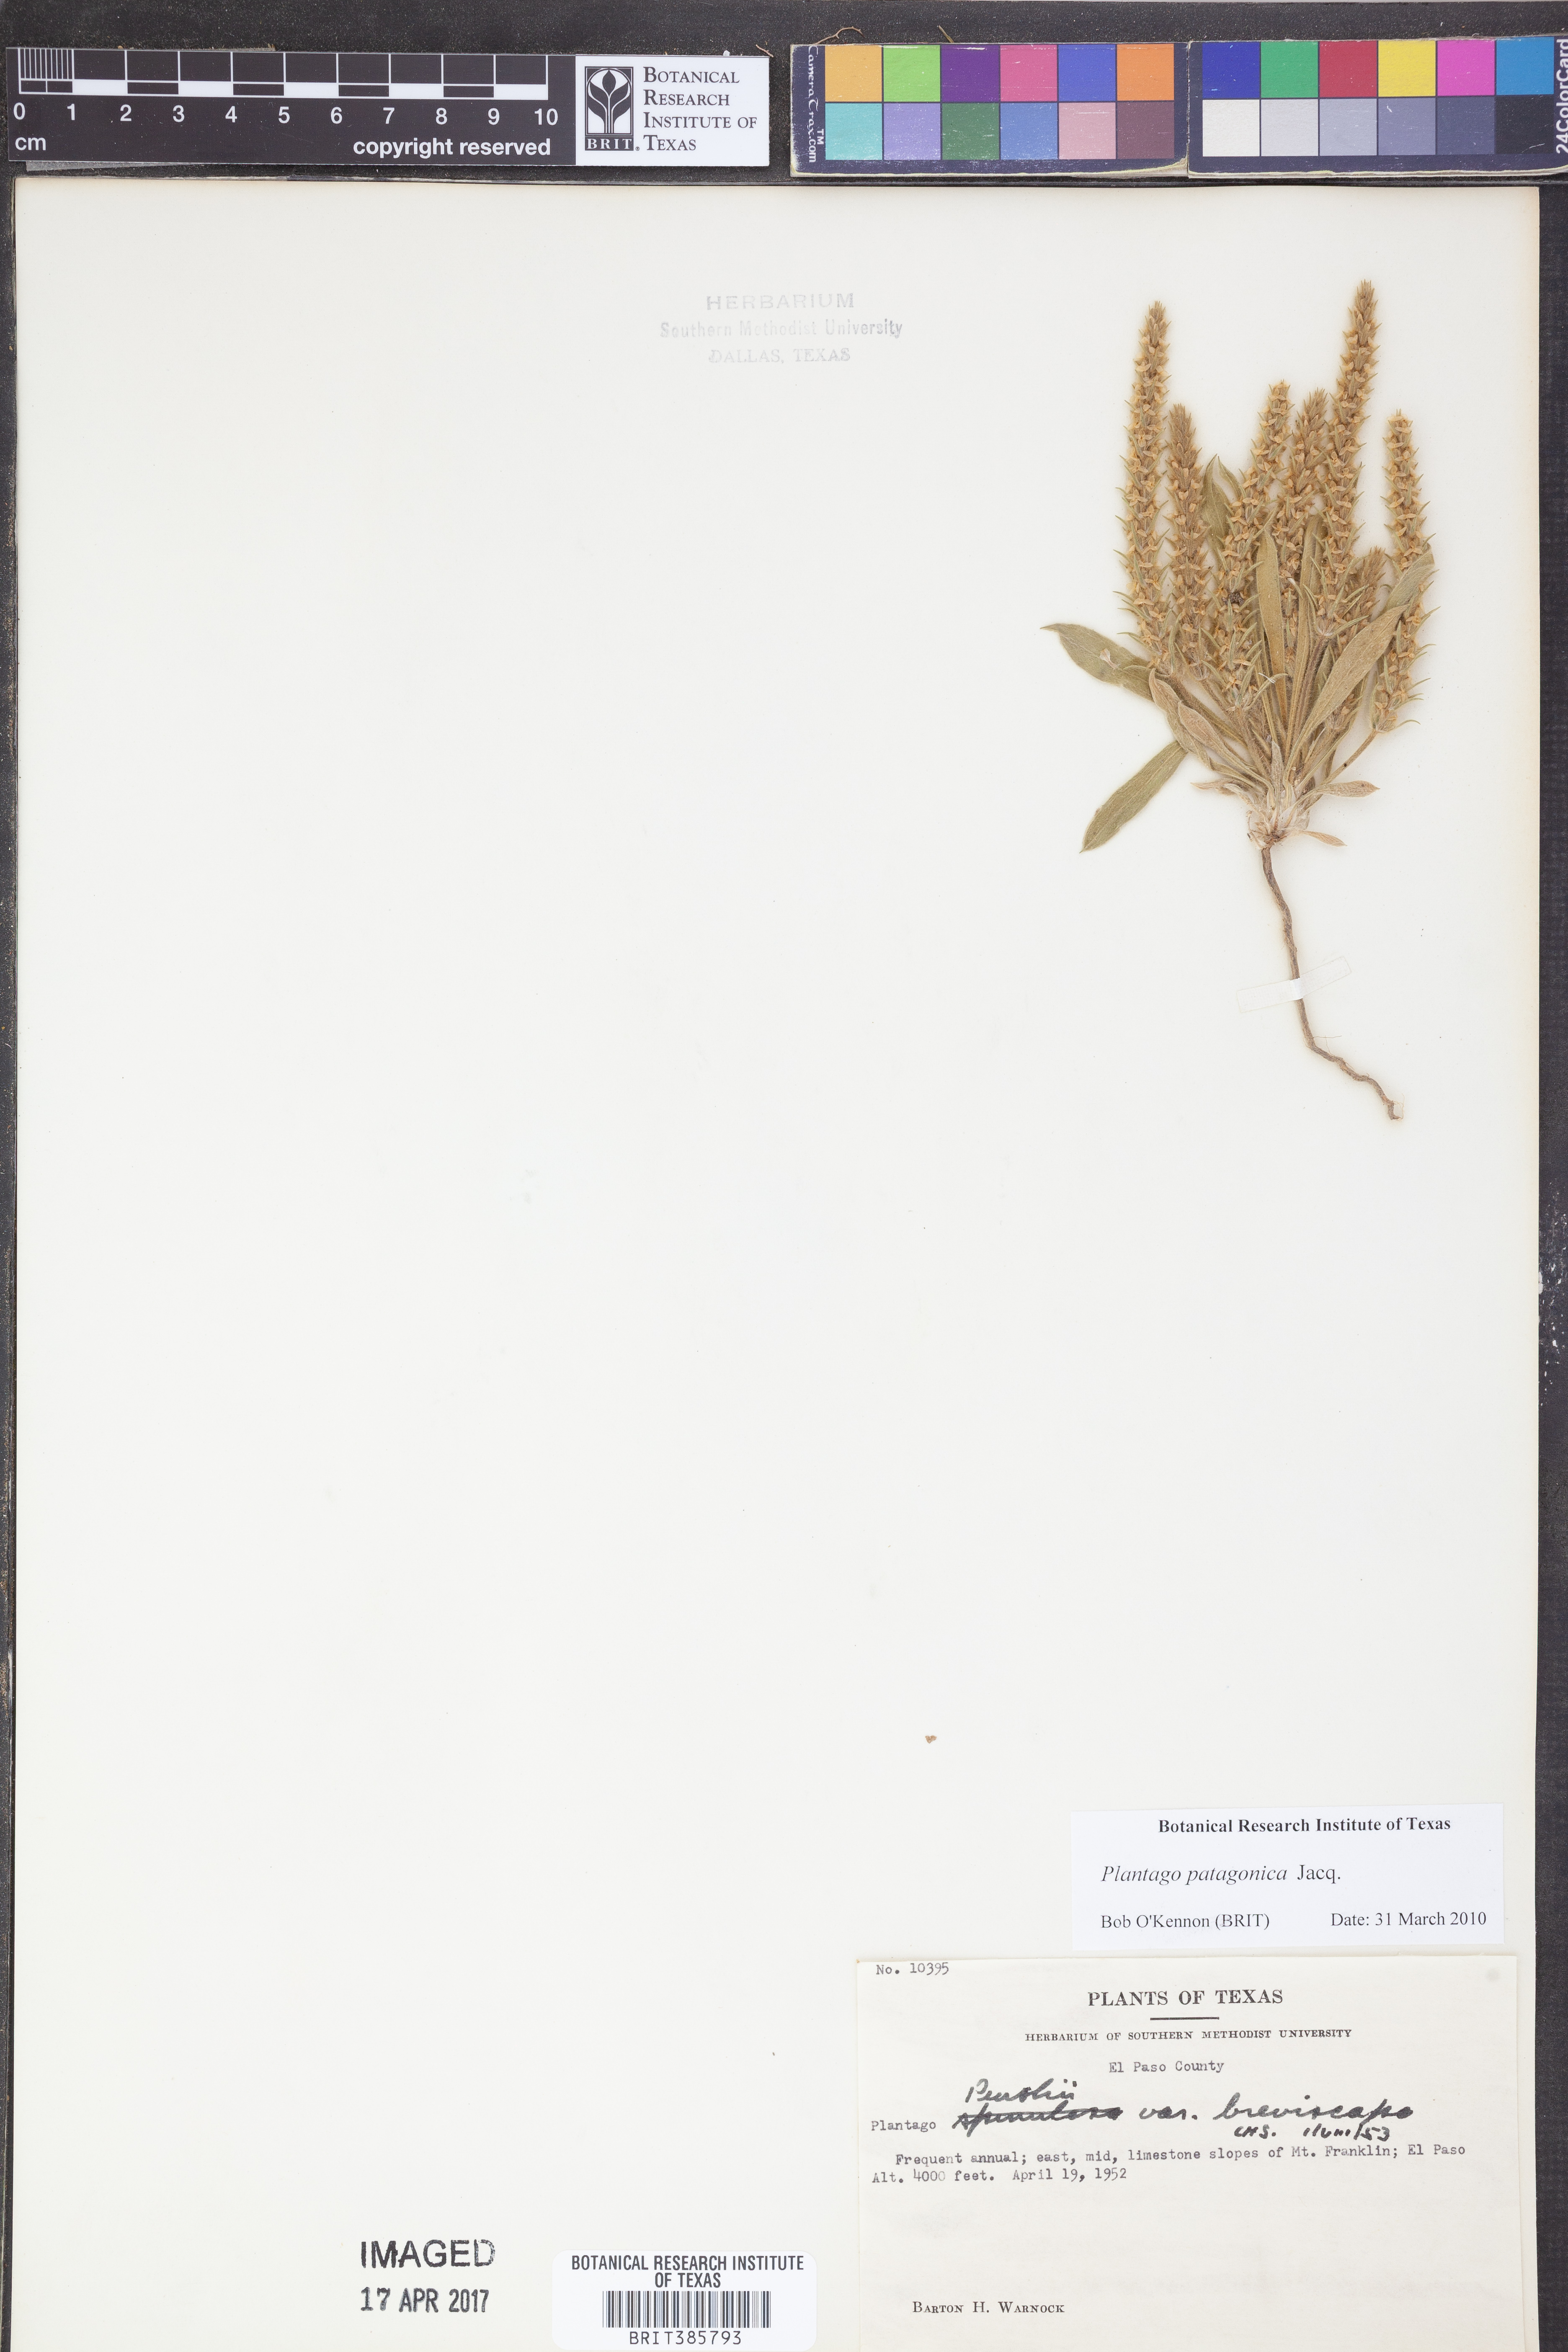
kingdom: Plantae
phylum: Tracheophyta
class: Magnoliopsida
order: Lamiales
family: Plantaginaceae
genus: Plantago
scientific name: Plantago patagonica
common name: Patagonia indian-wheat
